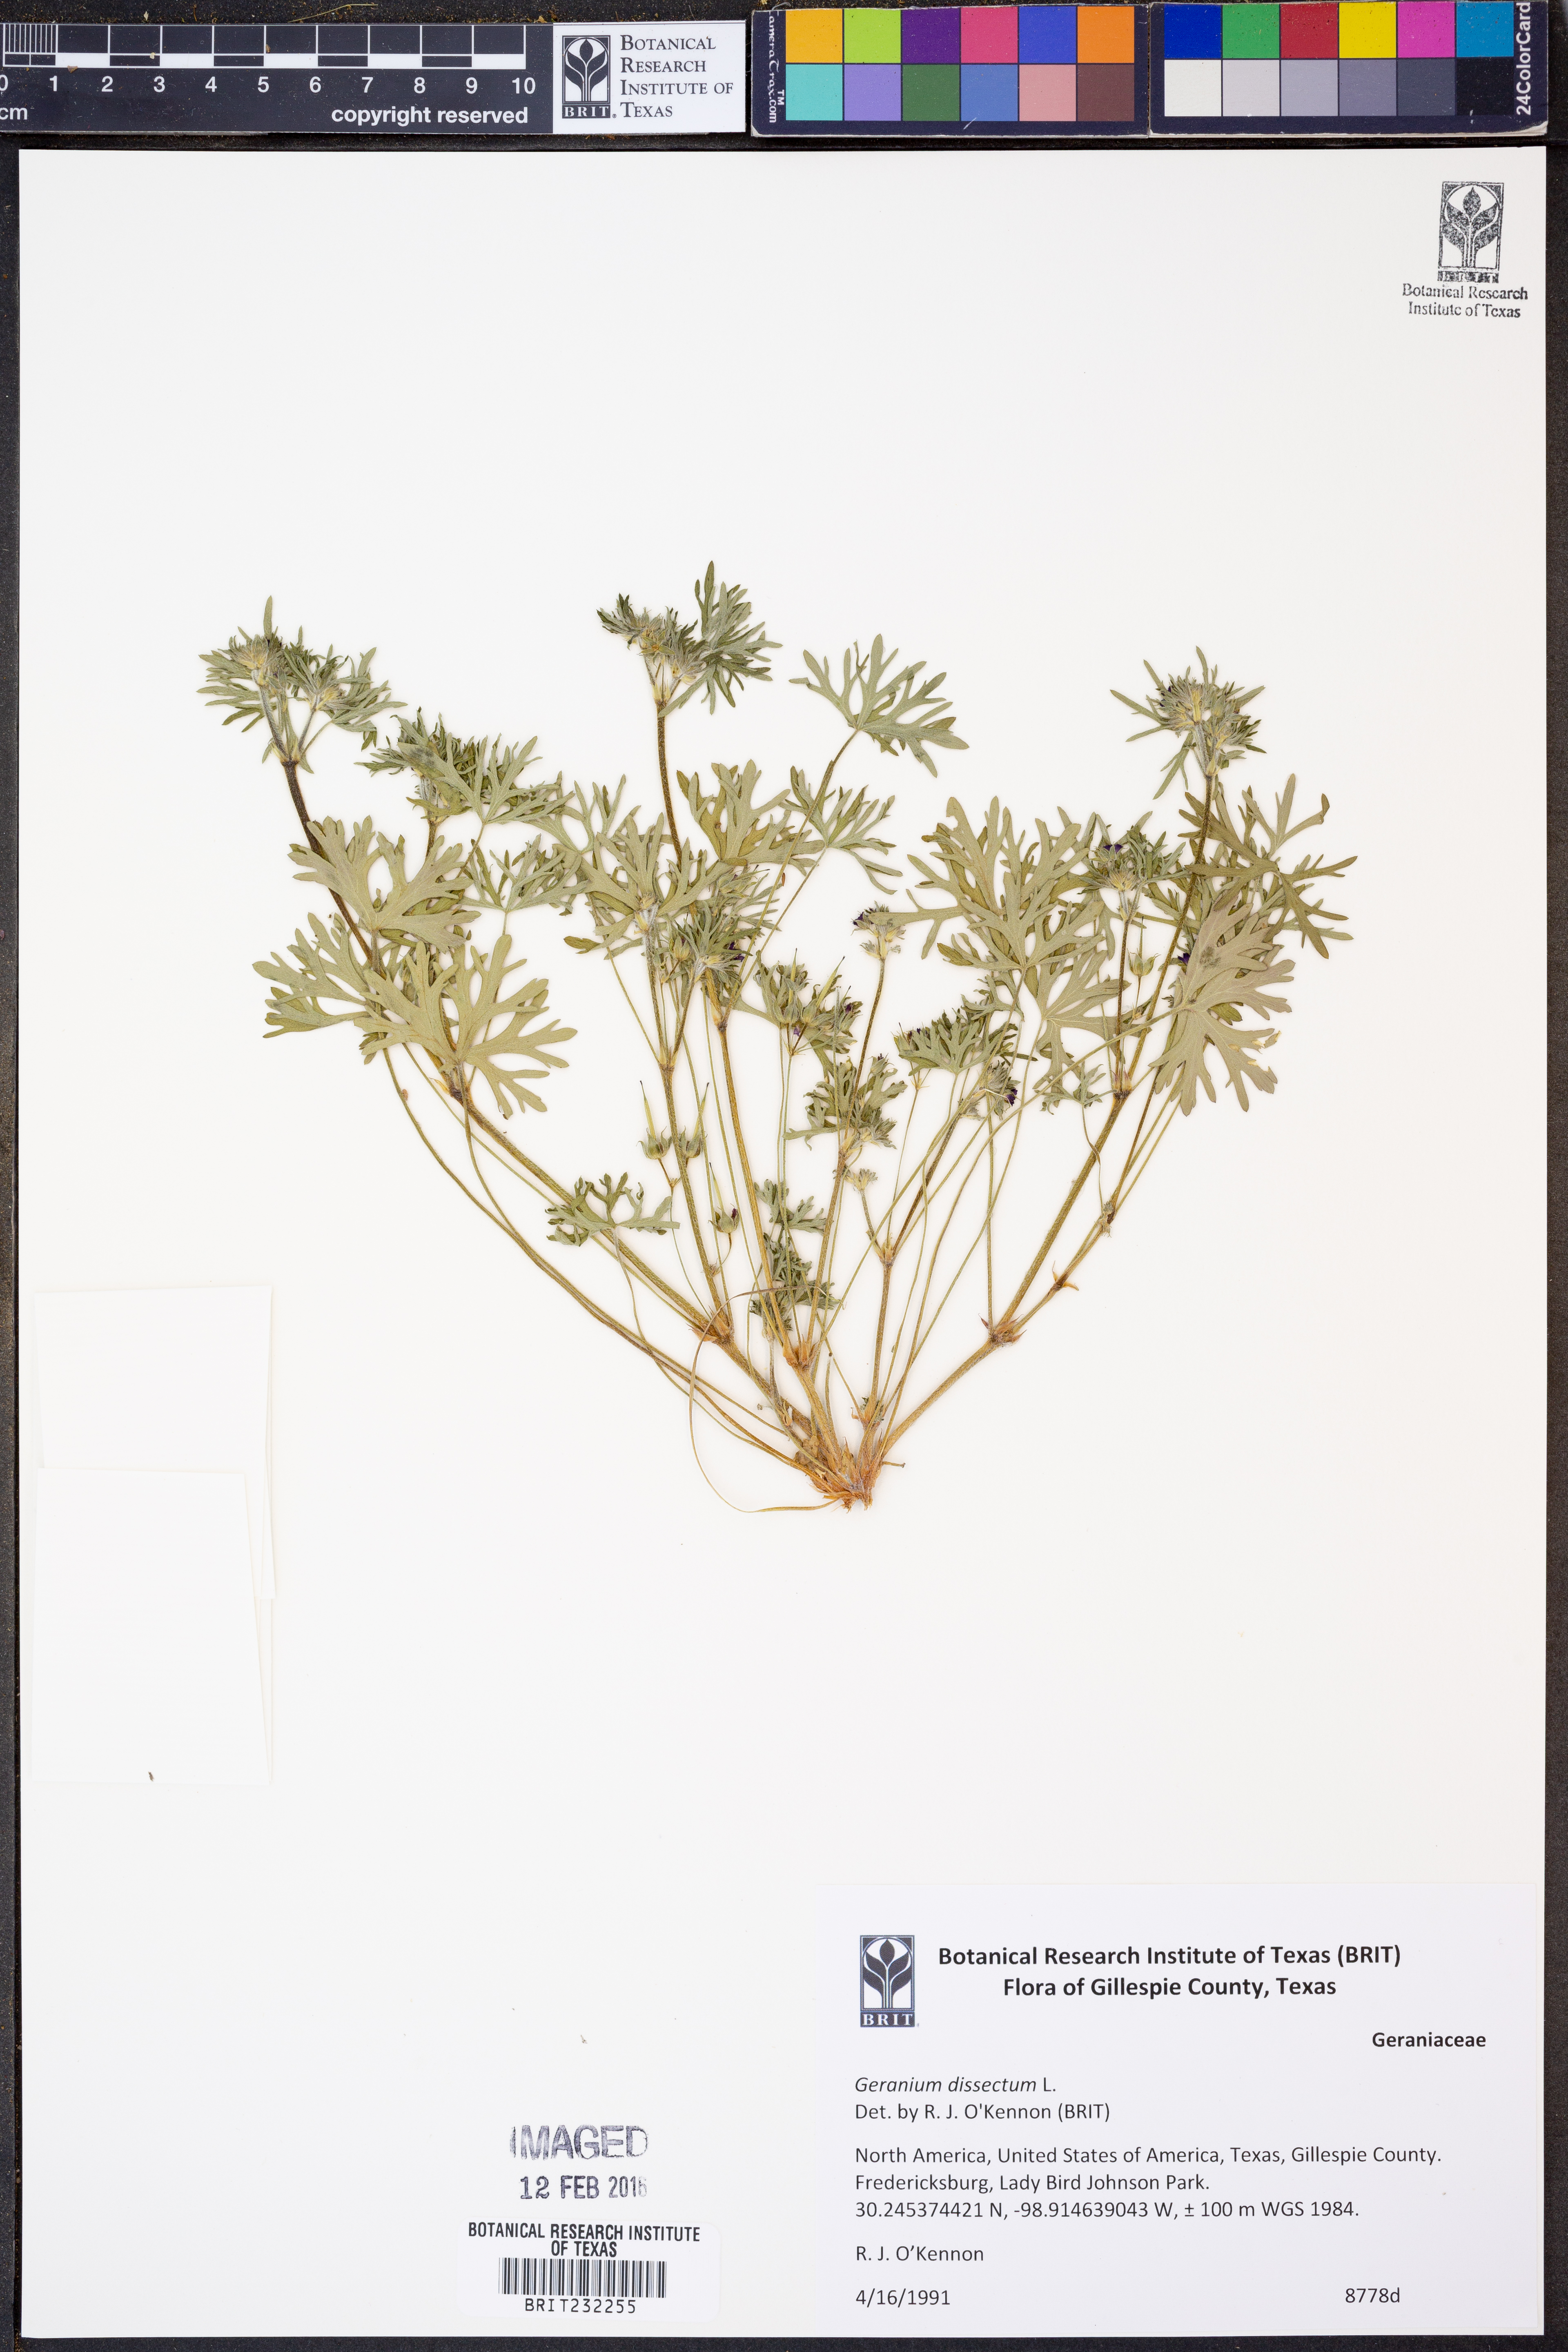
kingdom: Plantae
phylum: Tracheophyta
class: Magnoliopsida
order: Geraniales
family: Geraniaceae
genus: Geranium
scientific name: Geranium dissectum
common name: Cut-leaved crane's-bill
